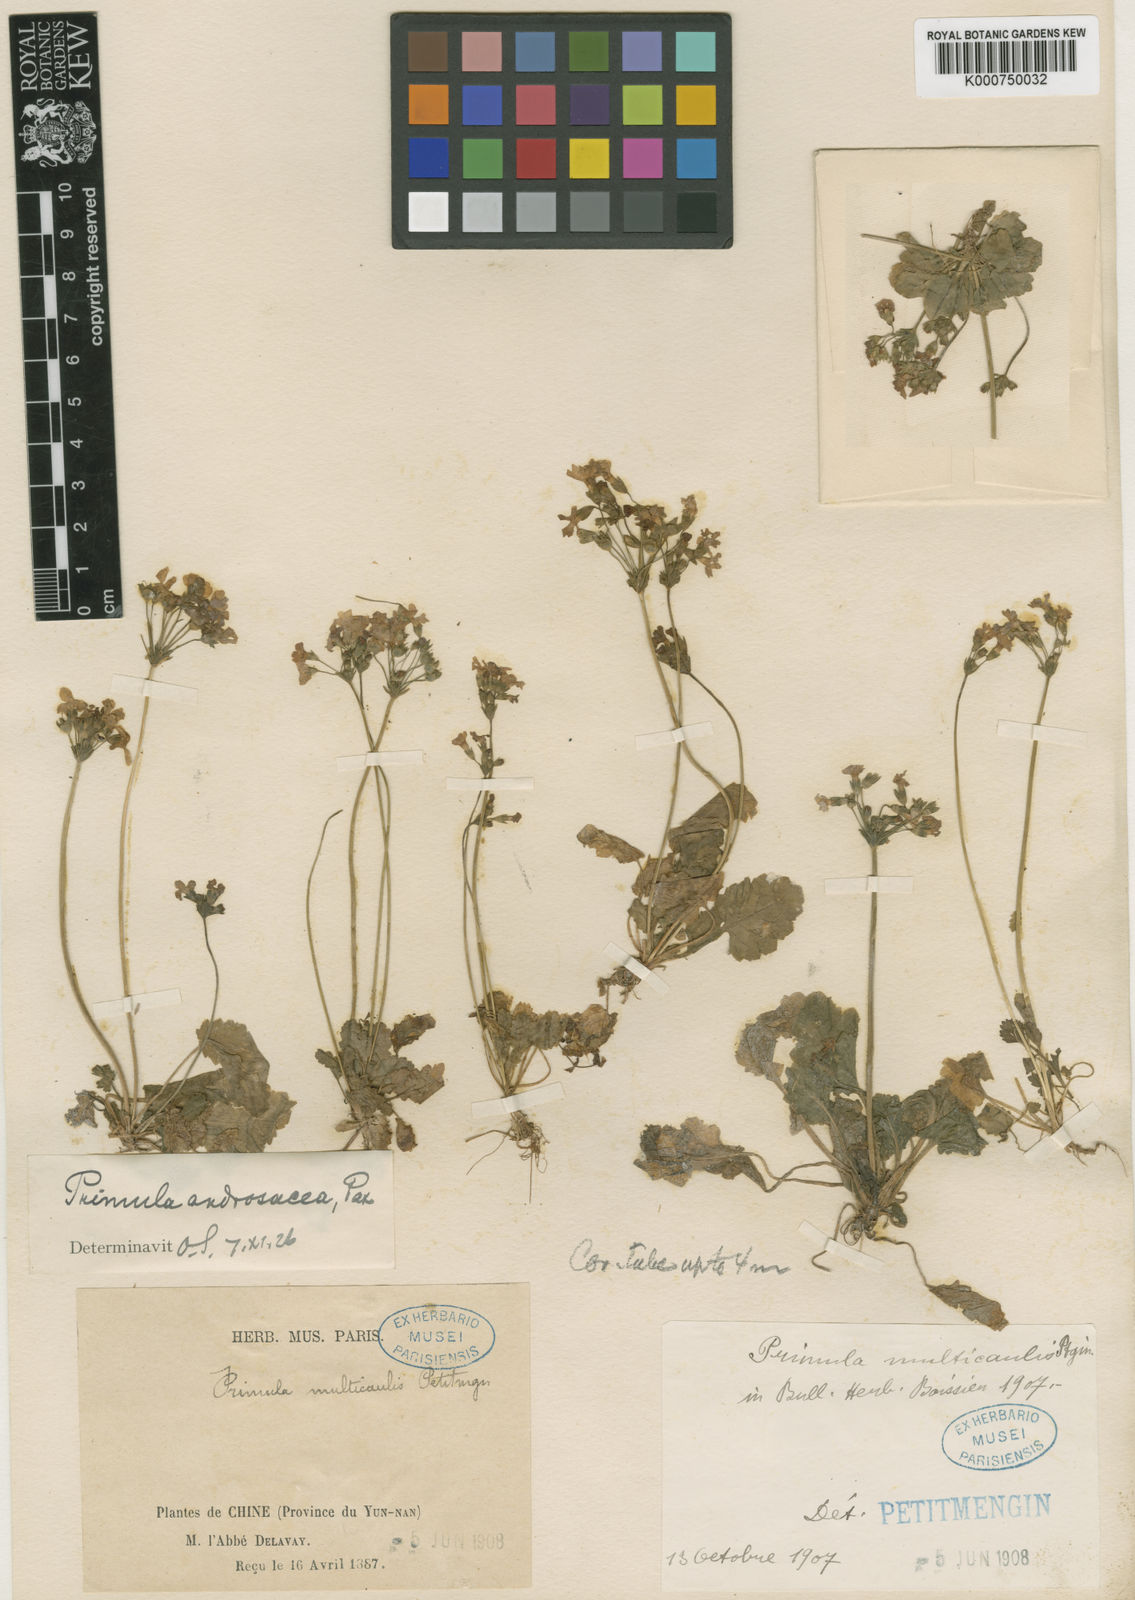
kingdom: Plantae
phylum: Tracheophyta
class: Magnoliopsida
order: Ericales
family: Primulaceae
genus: Primula
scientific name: Primula filipes
